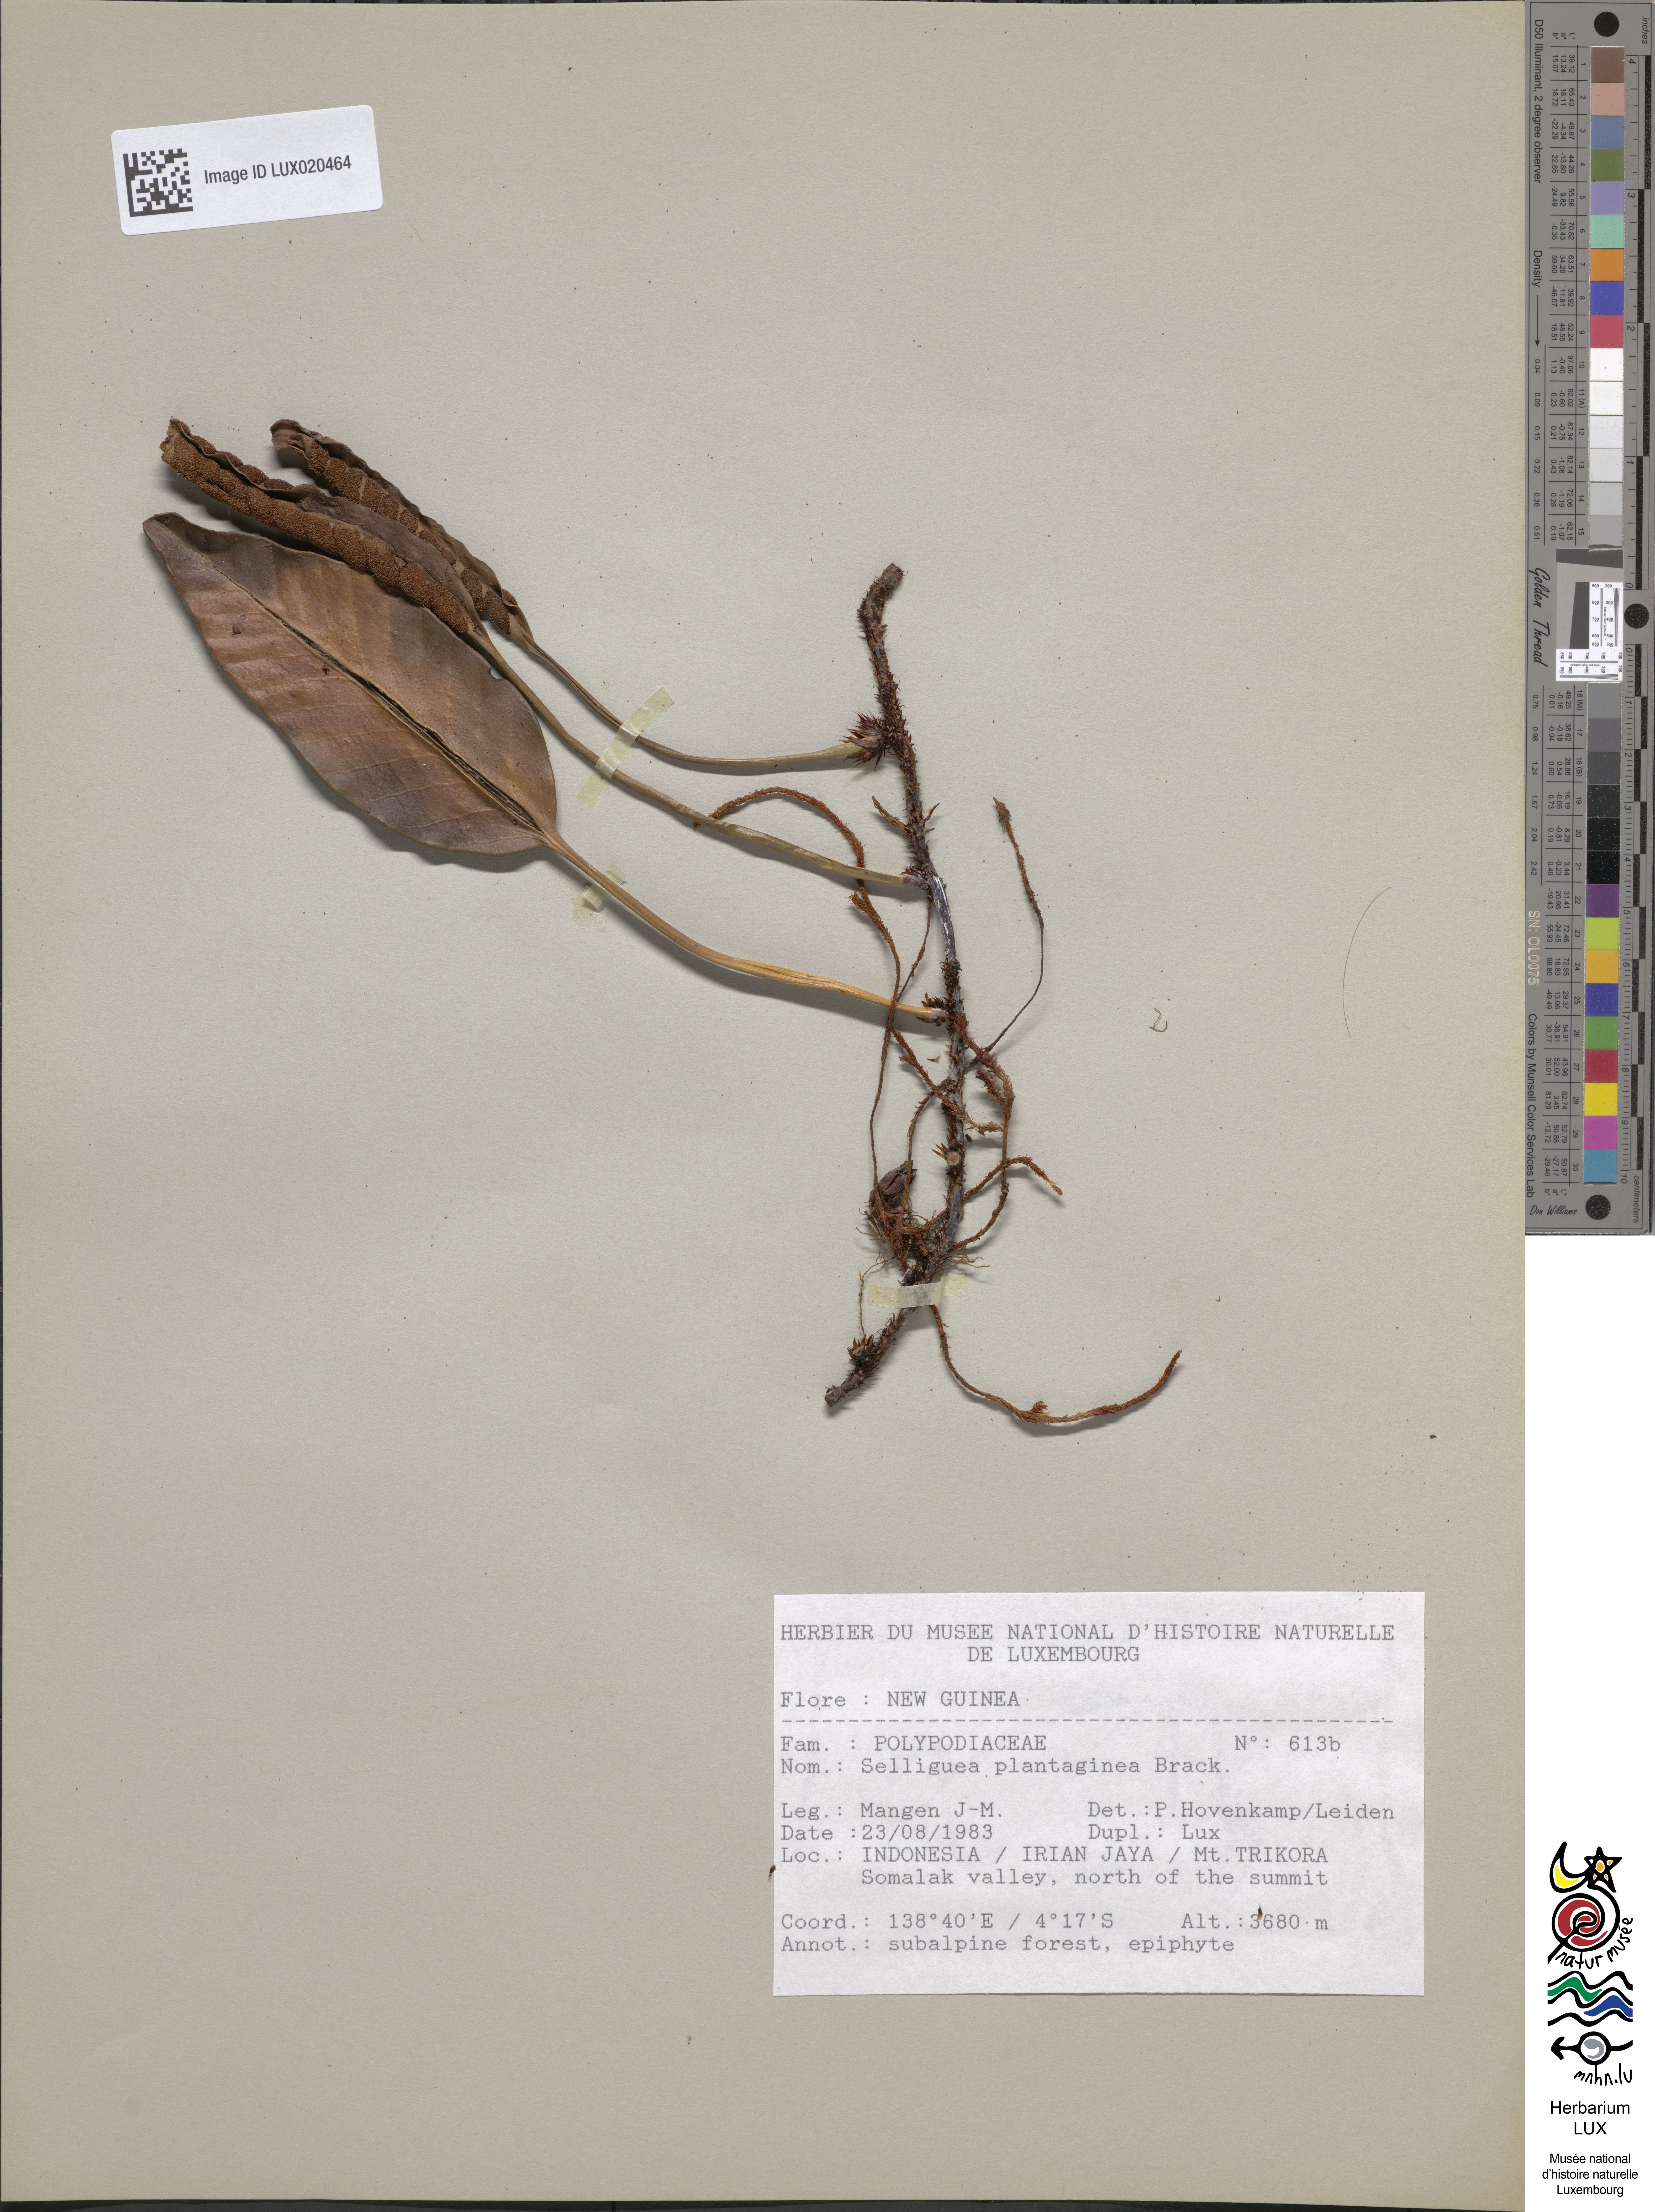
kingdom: Plantae
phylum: Tracheophyta
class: Polypodiopsida
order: Polypodiales
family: Polypodiaceae
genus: Selliguea
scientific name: Selliguea plantaginea
